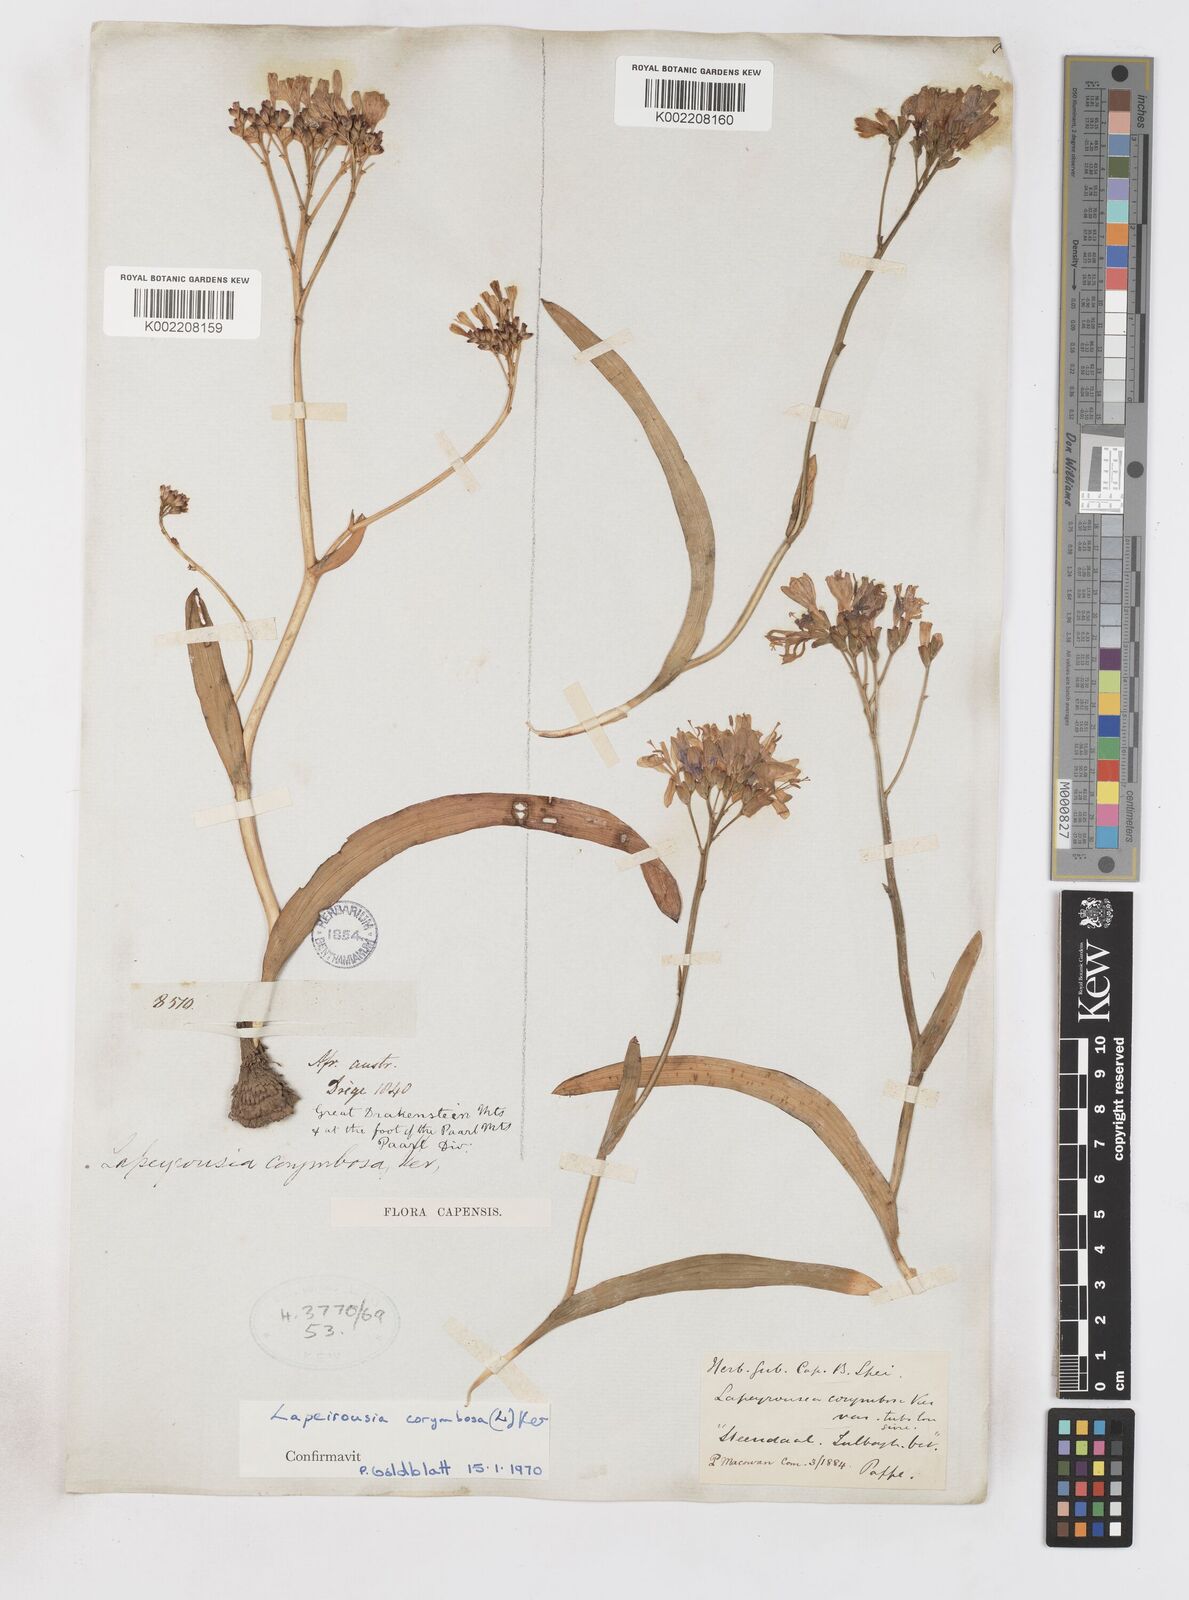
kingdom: Plantae
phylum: Tracheophyta
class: Liliopsida
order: Asparagales
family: Iridaceae
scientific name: Iridaceae
